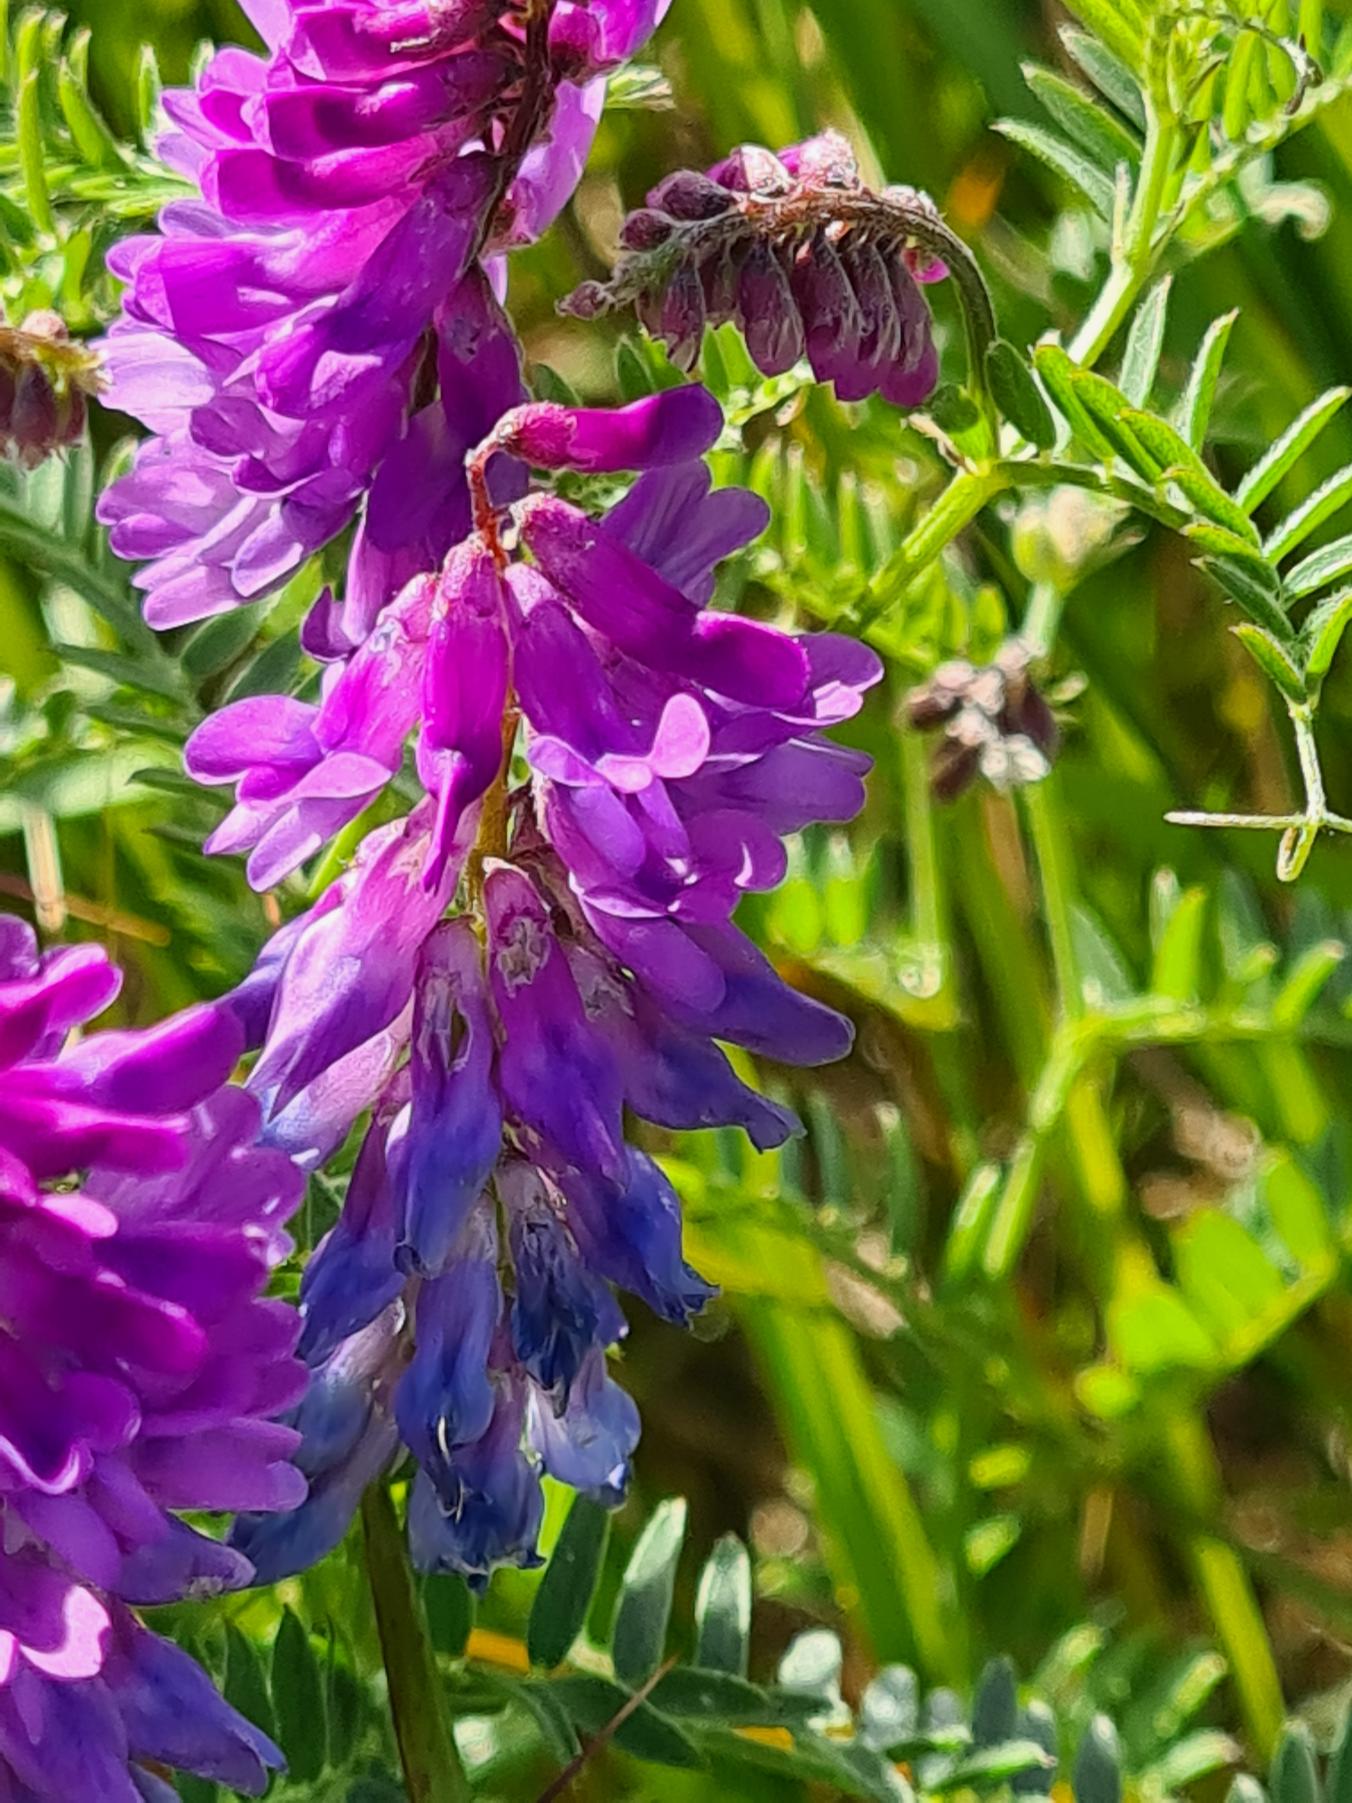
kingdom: Plantae
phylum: Tracheophyta
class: Magnoliopsida
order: Fabales
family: Fabaceae
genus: Vicia
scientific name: Vicia cracca
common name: Muse-vikke
